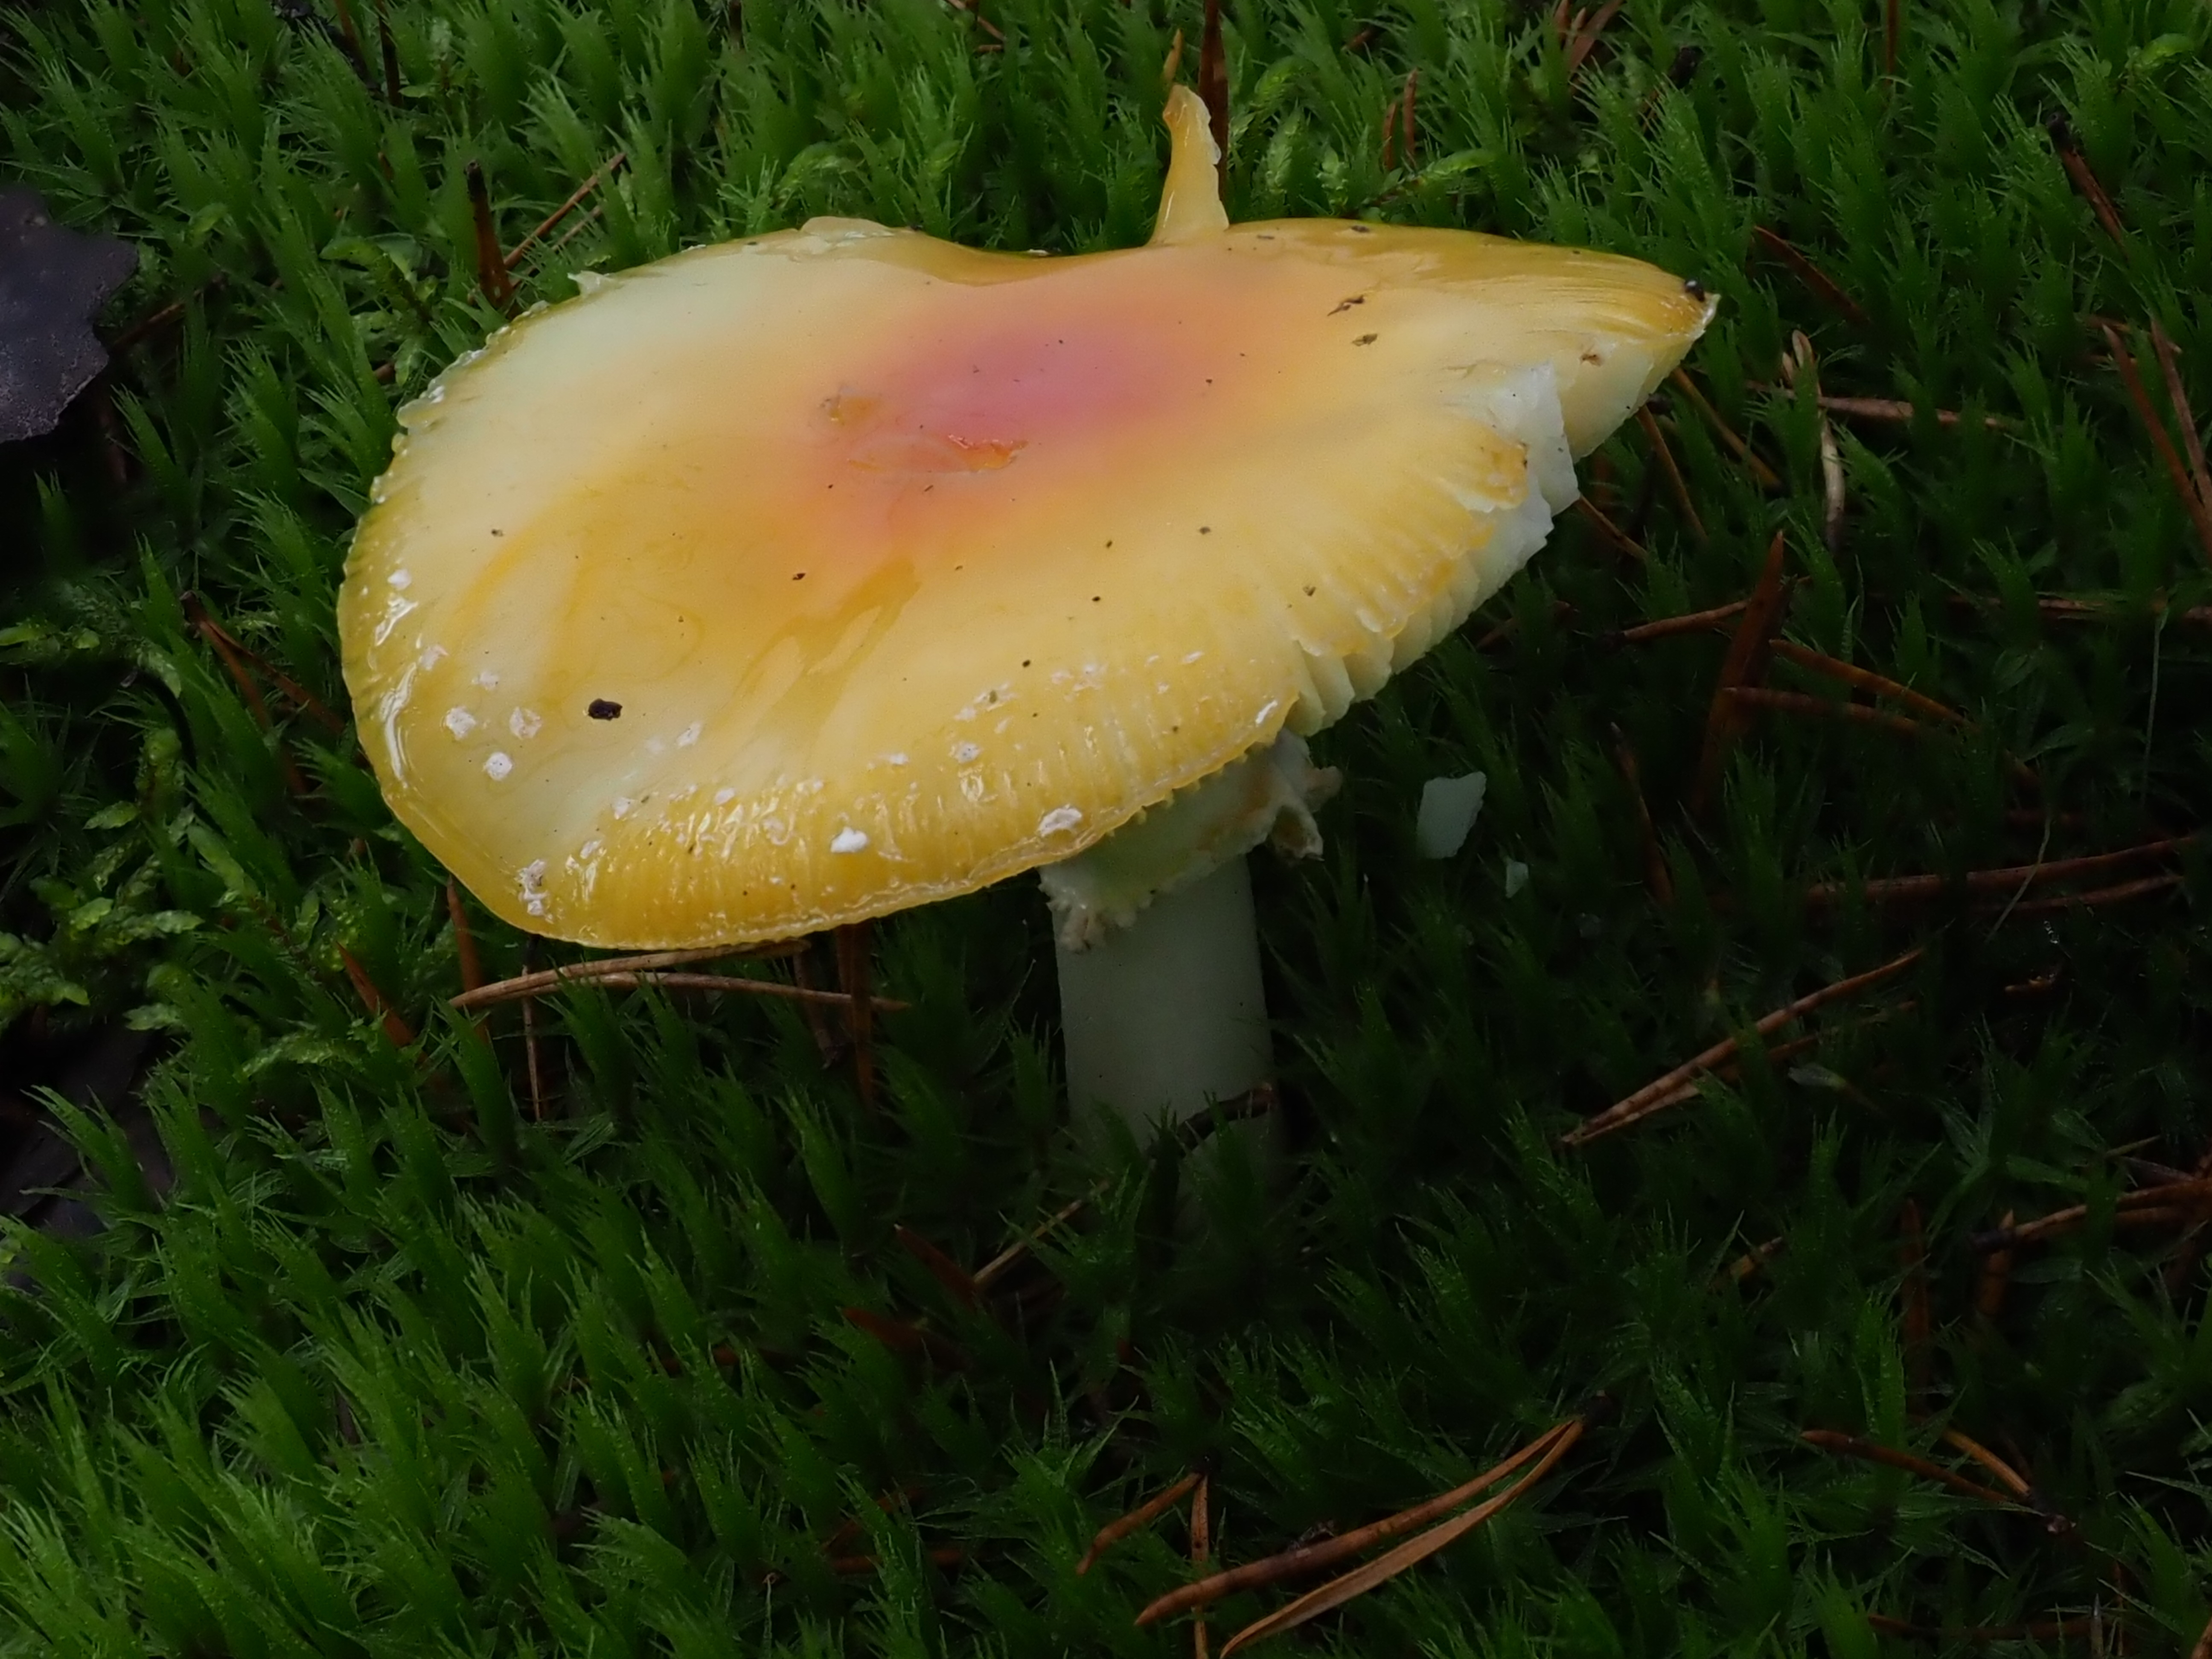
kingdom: Fungi
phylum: Basidiomycota
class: Agaricomycetes
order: Agaricales
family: Amanitaceae
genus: Amanita
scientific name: Amanita muscaria
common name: Fly agaric
